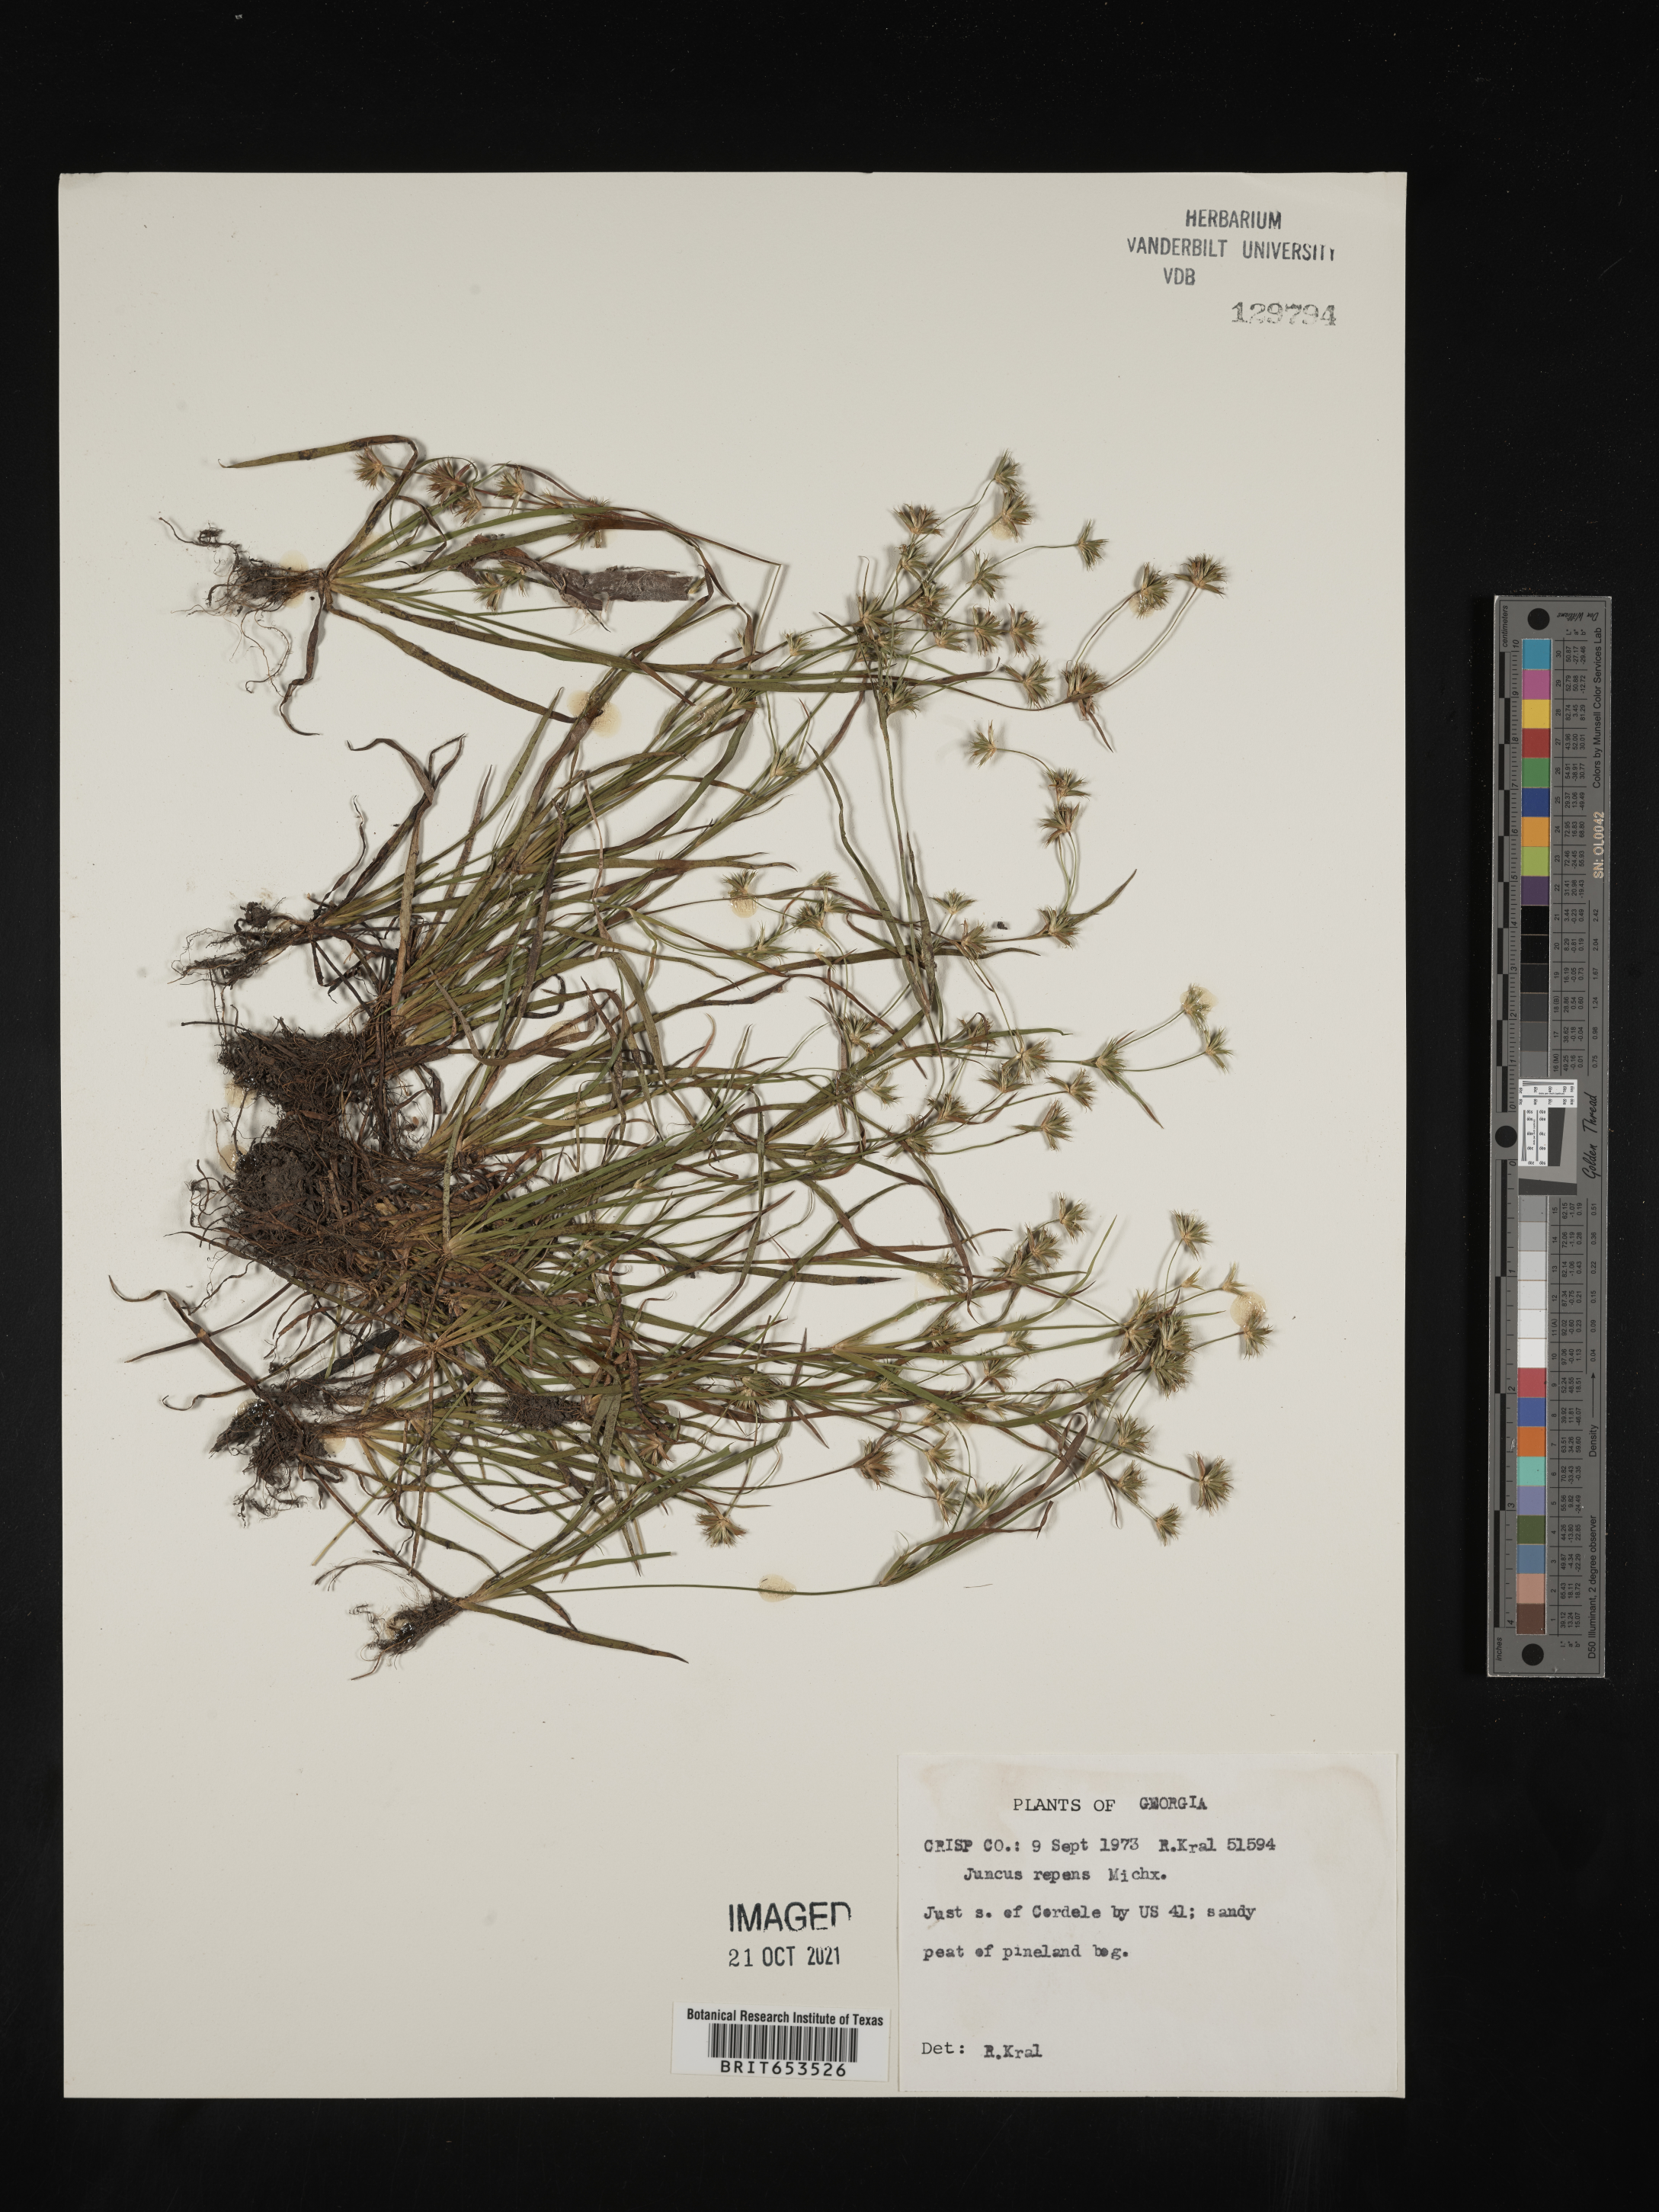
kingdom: Plantae
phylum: Tracheophyta
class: Liliopsida
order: Poales
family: Juncaceae
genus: Juncus
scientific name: Juncus repens
